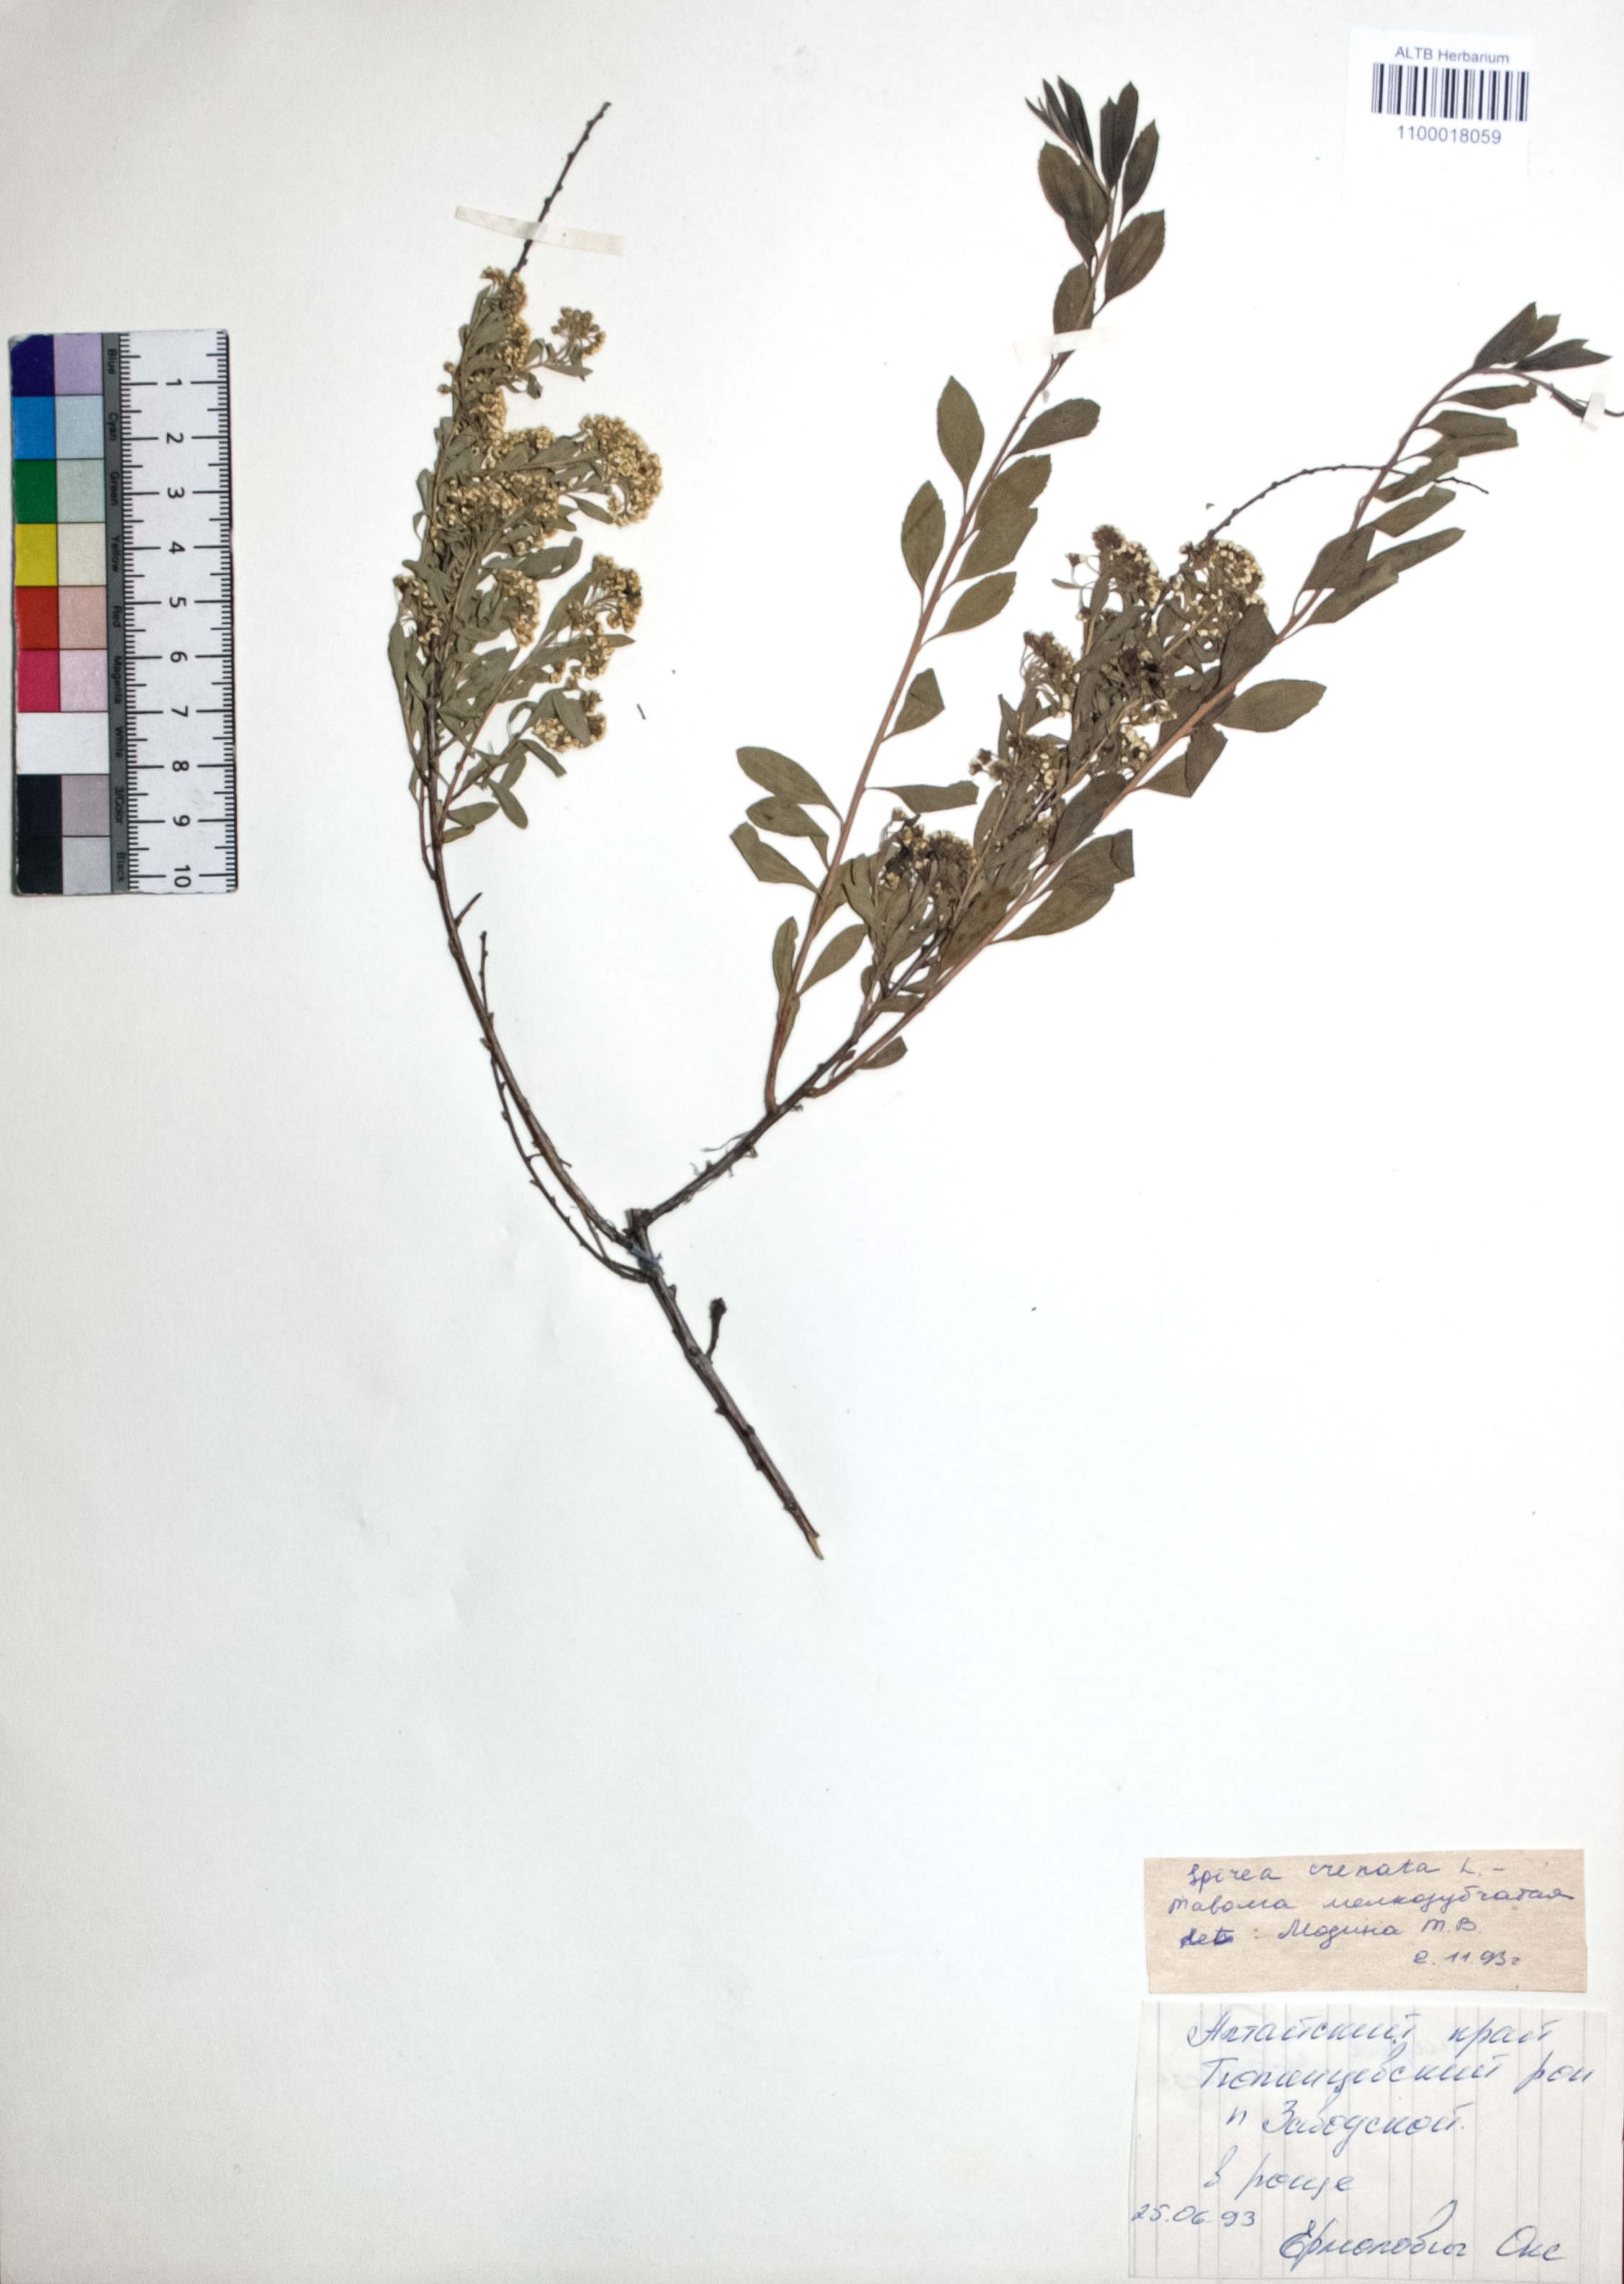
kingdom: Plantae
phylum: Tracheophyta
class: Magnoliopsida
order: Rosales
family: Rosaceae
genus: Spiraea
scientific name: Spiraea crenata
